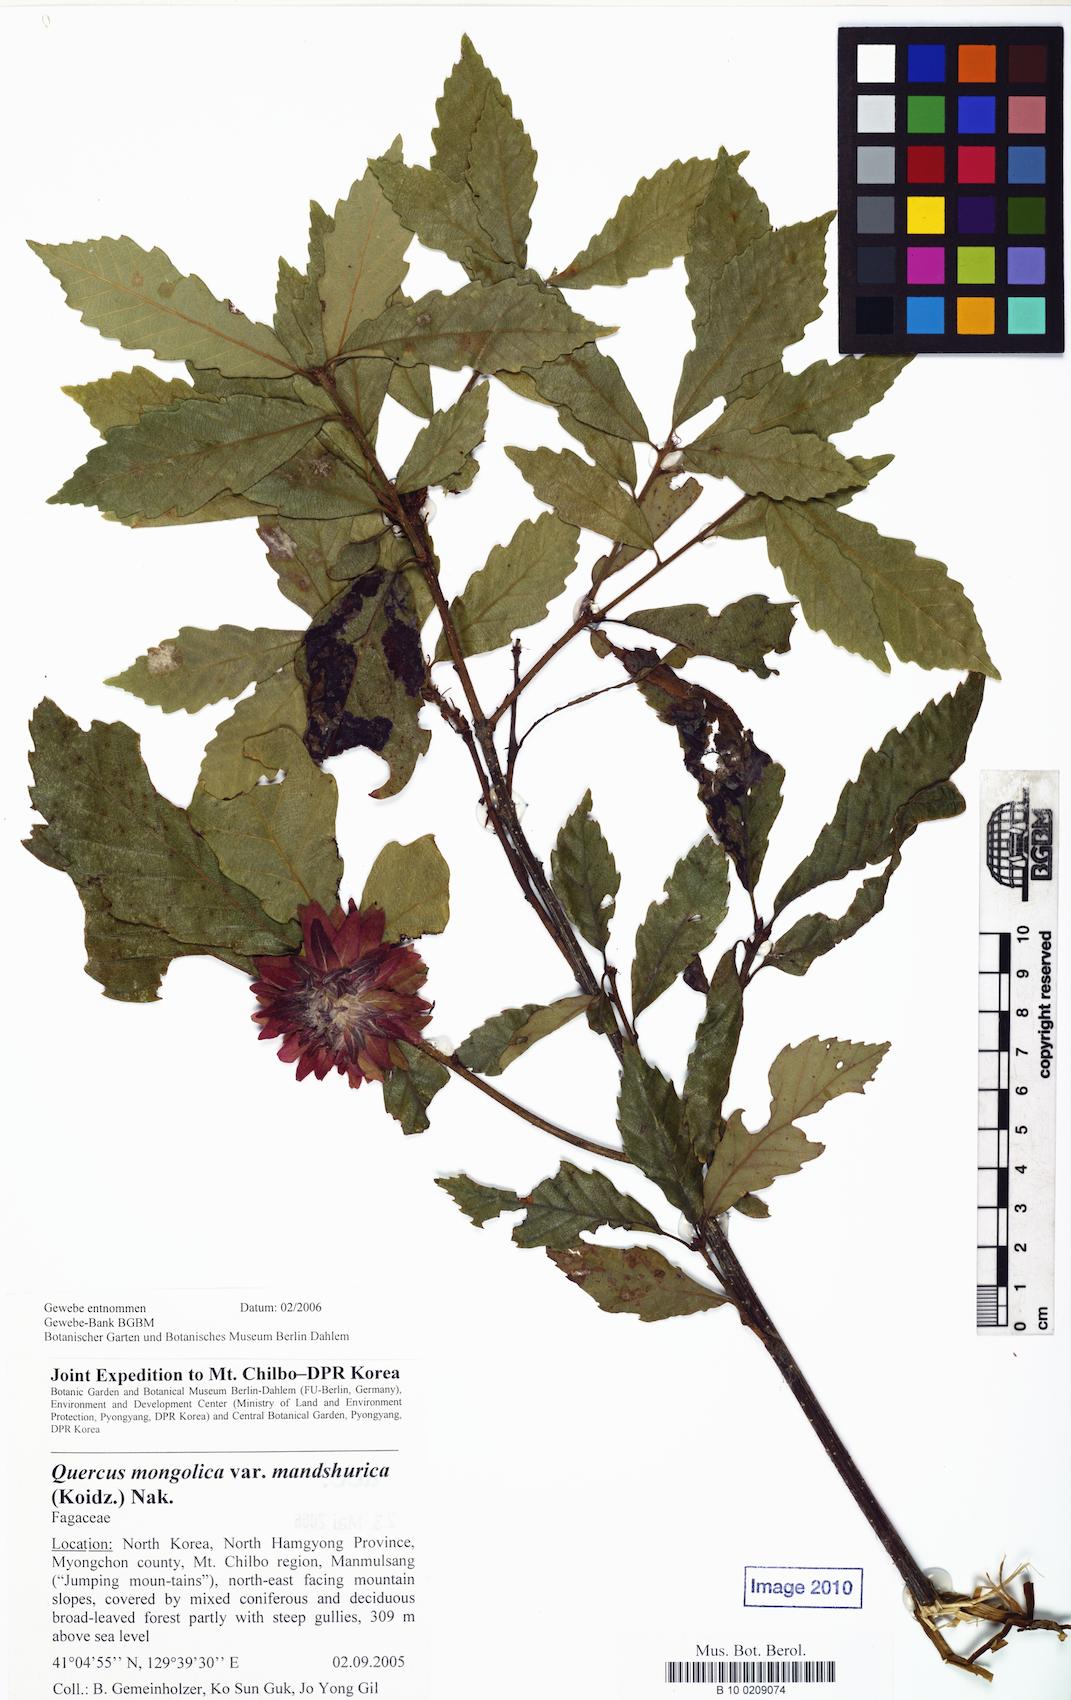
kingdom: Plantae
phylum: Tracheophyta
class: Magnoliopsida
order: Fagales
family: Fagaceae
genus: Quercus
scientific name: Quercus mongolica
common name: Mongolian oak
